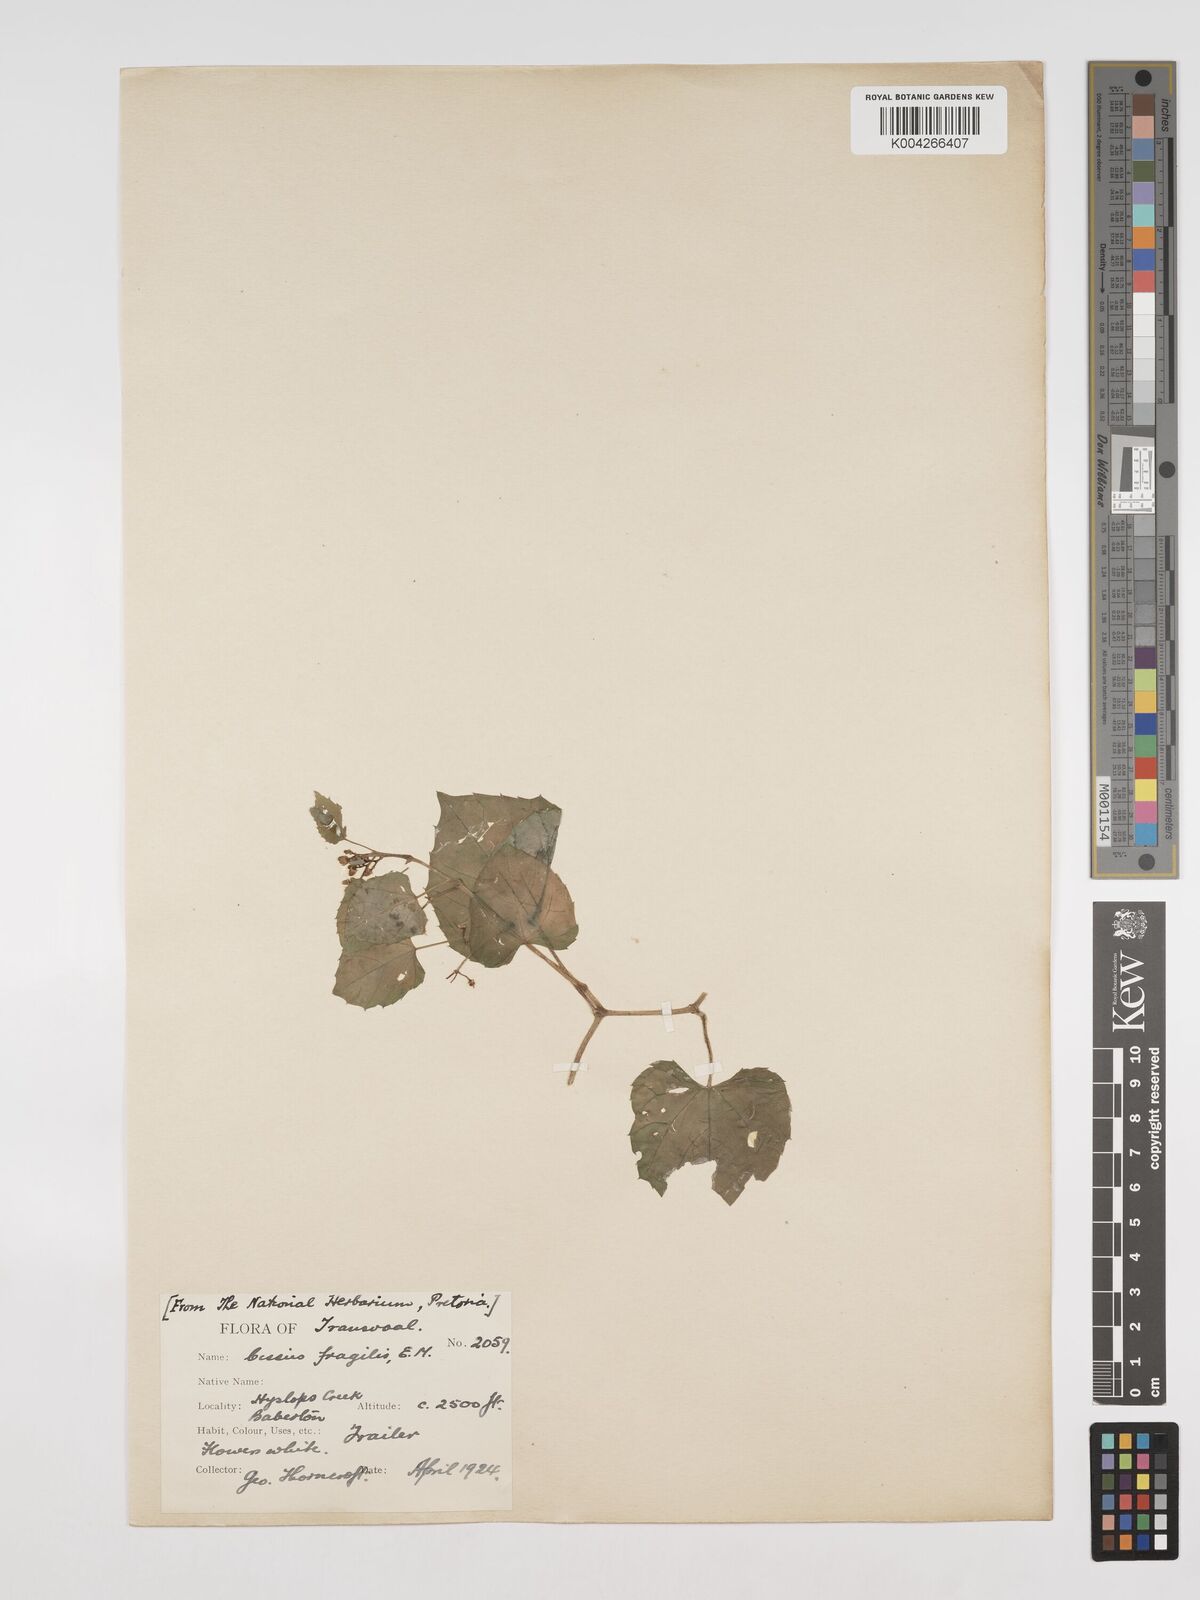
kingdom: Plantae
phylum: Tracheophyta
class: Magnoliopsida
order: Vitales
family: Vitaceae
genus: Cissus
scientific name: Cissus fragilis
